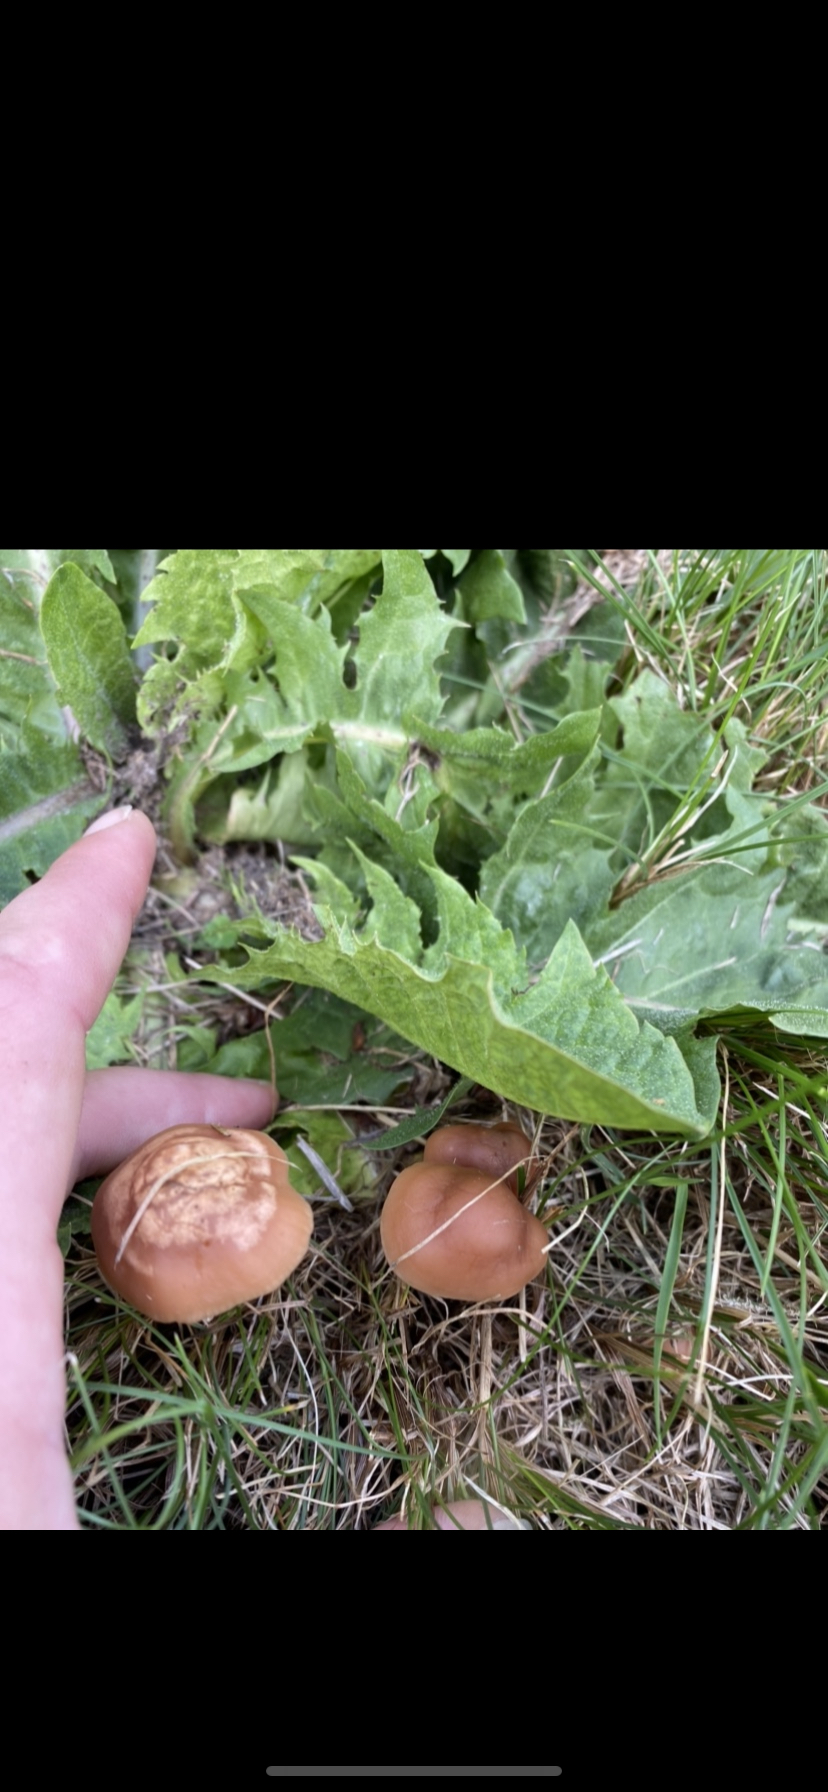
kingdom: Fungi
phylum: Basidiomycota
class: Agaricomycetes
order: Agaricales
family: Marasmiaceae
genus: Marasmius
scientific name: Marasmius oreades
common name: elledans-bruskhat
